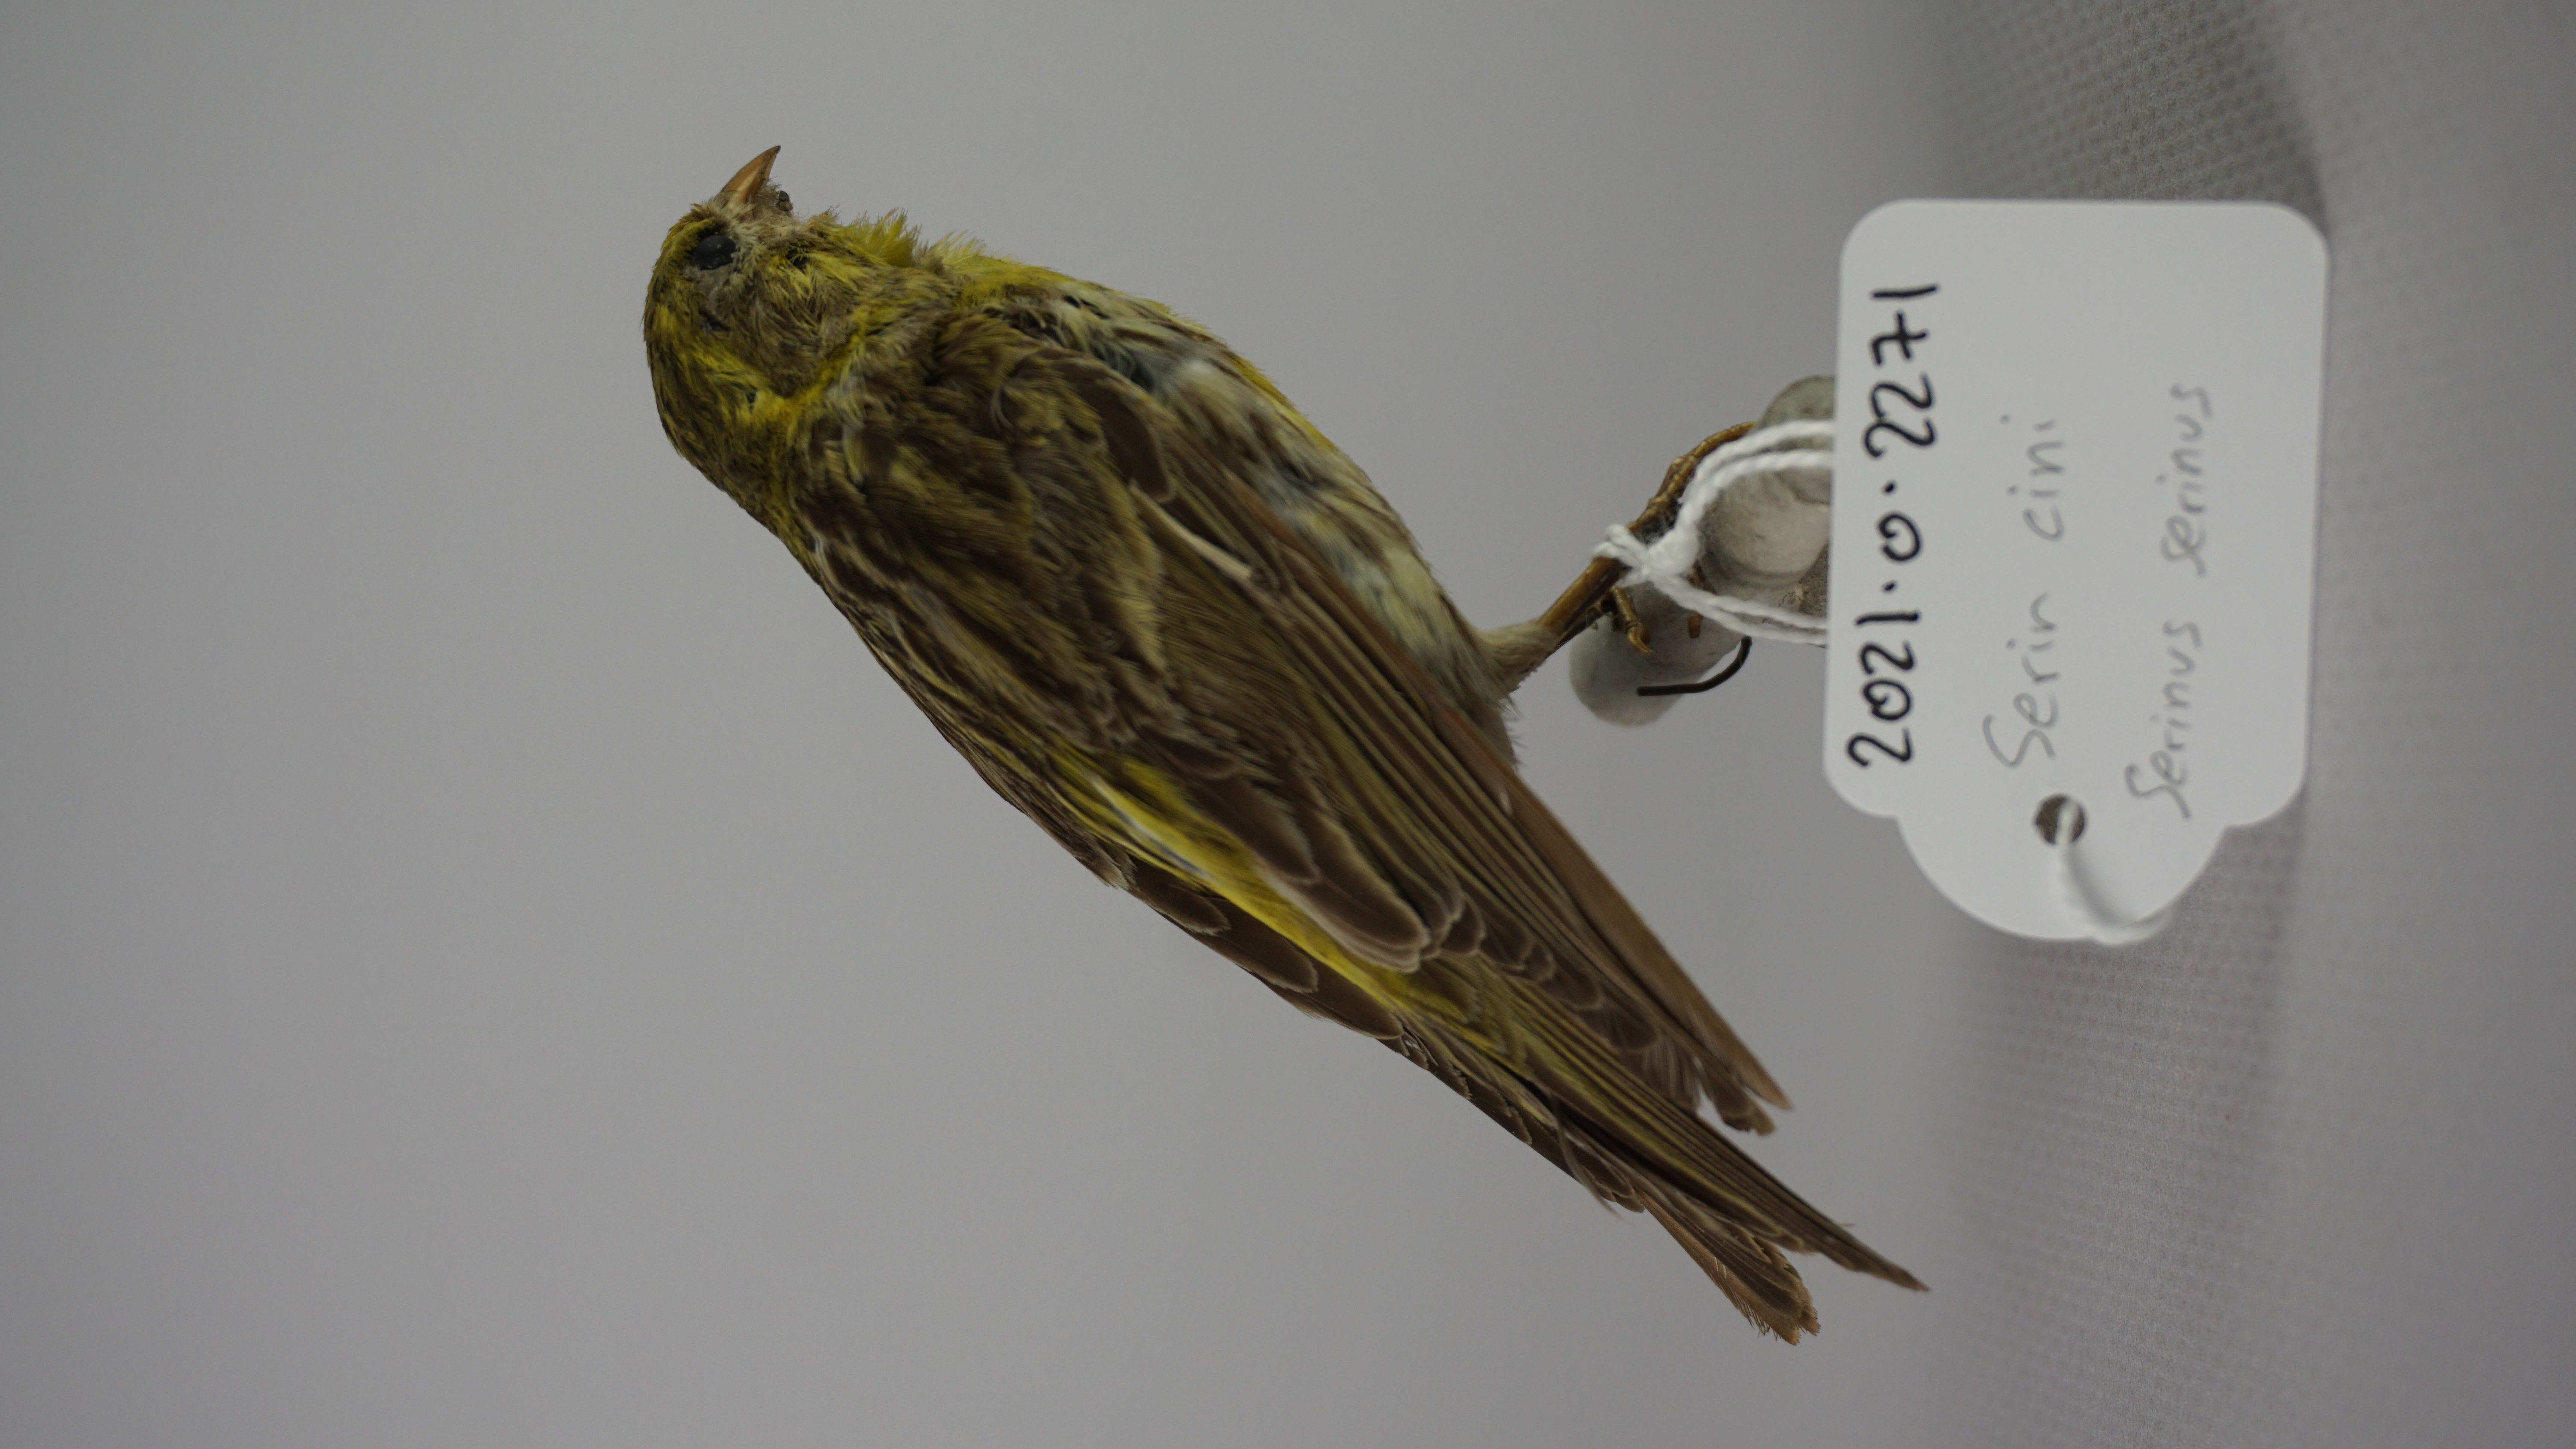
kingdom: Animalia
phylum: Chordata
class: Aves
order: Passeriformes
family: Fringillidae
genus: Serinus
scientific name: Serinus serinus
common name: European serin
